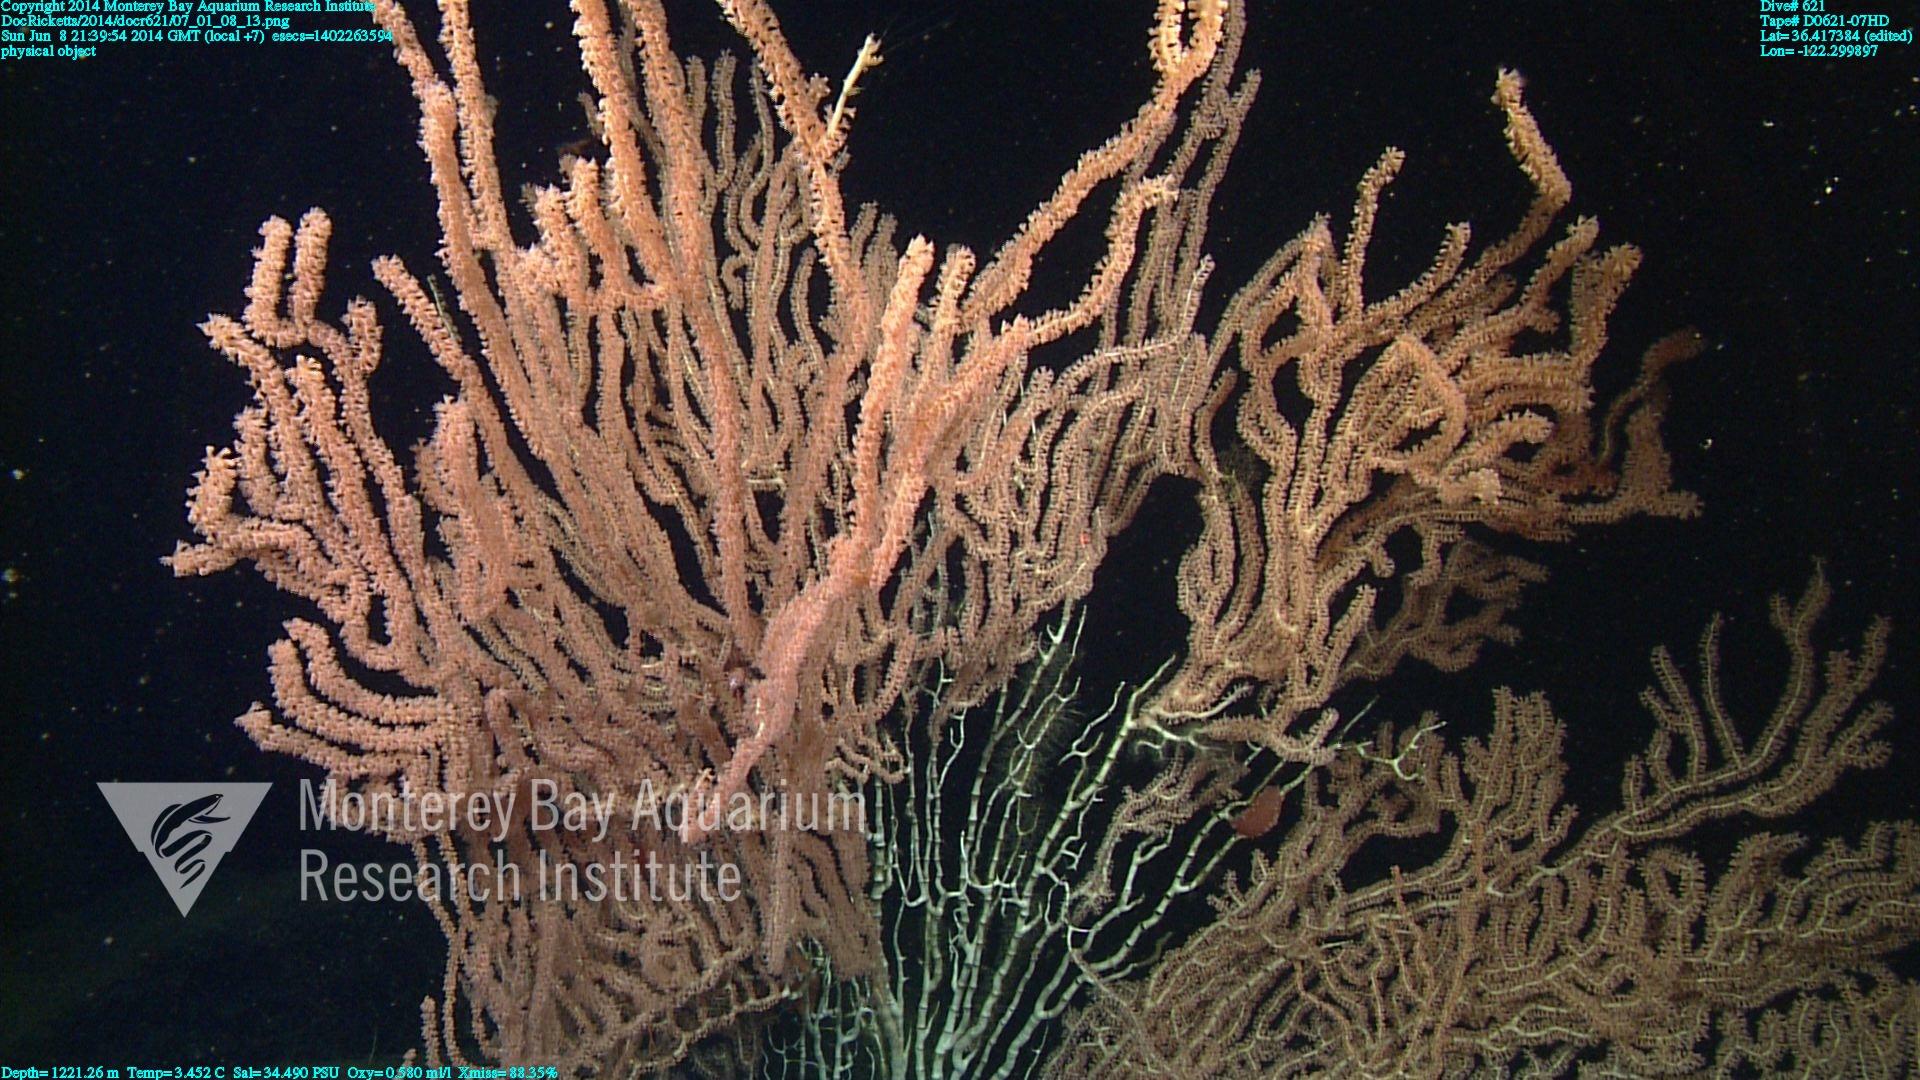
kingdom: Animalia
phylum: Cnidaria
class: Anthozoa
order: Scleralcyonacea
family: Keratoisididae
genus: Keratoisis
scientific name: Keratoisis
